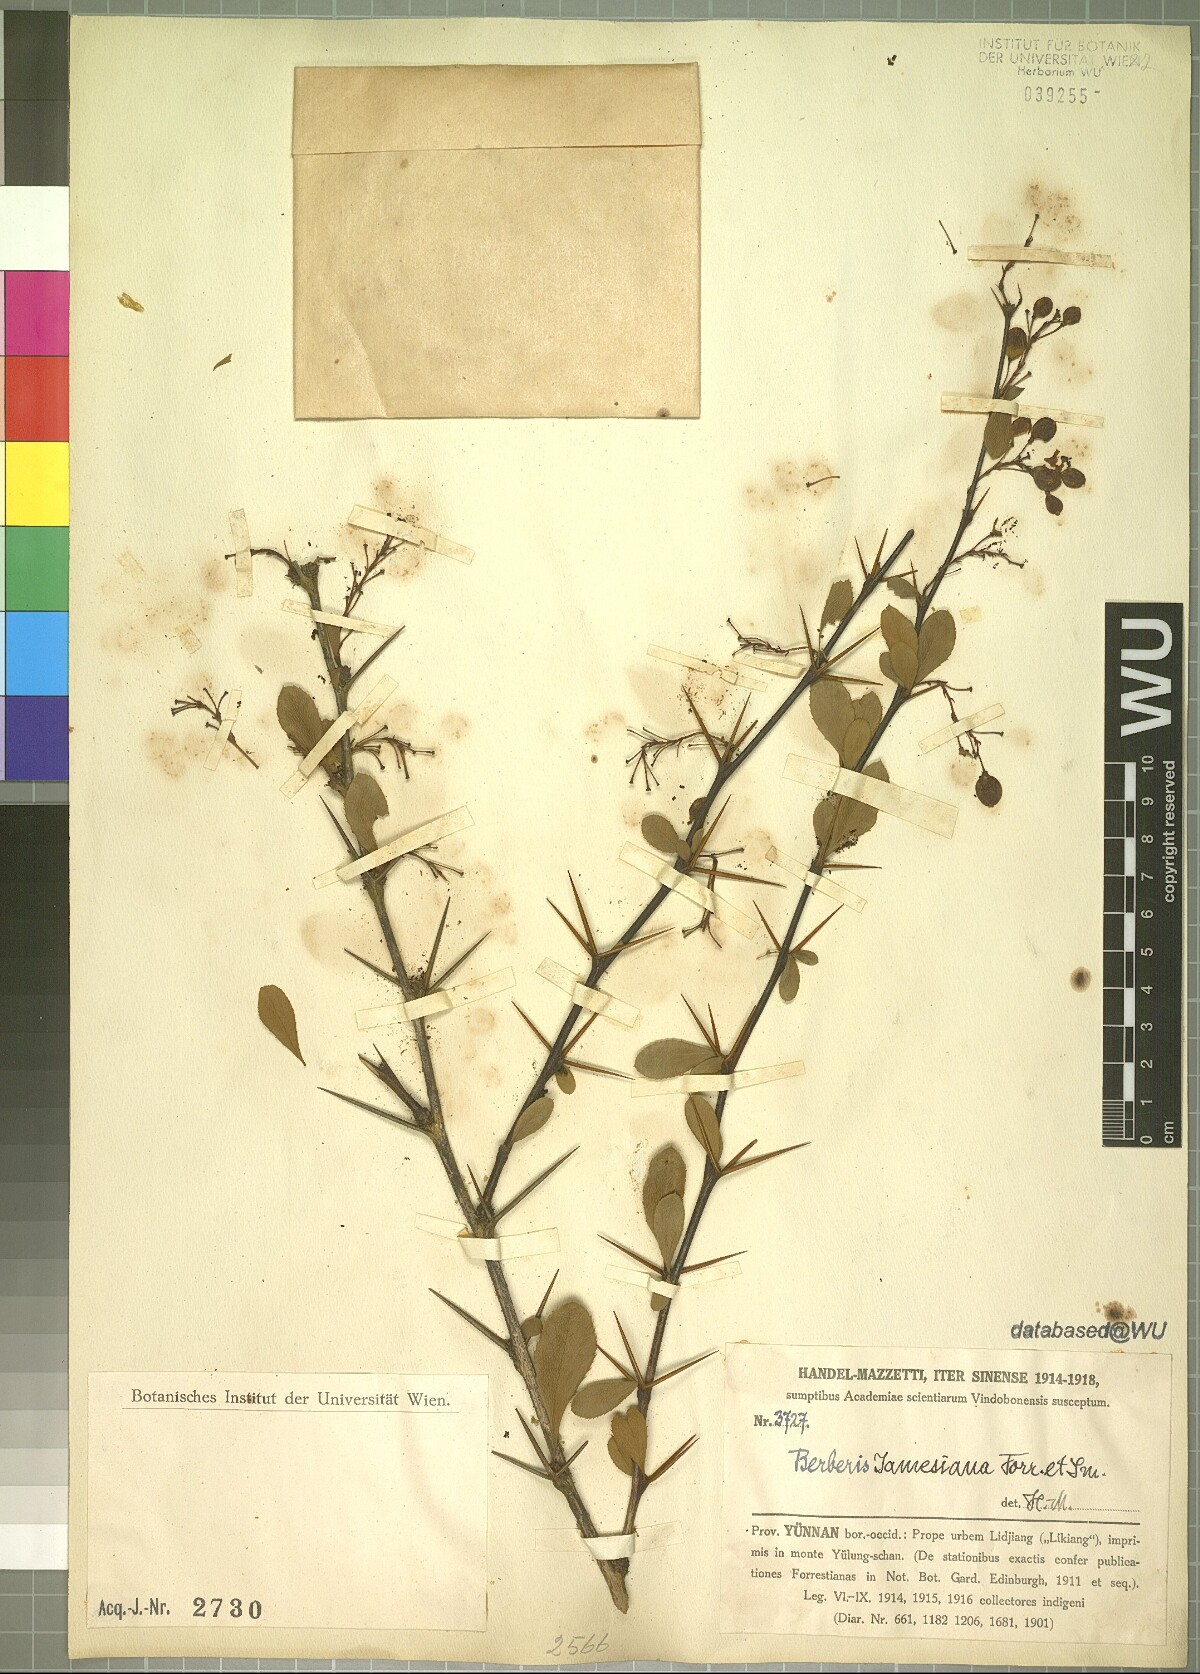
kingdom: Plantae
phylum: Tracheophyta
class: Magnoliopsida
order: Ranunculales
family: Berberidaceae
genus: Berberis
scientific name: Berberis jamesiana
